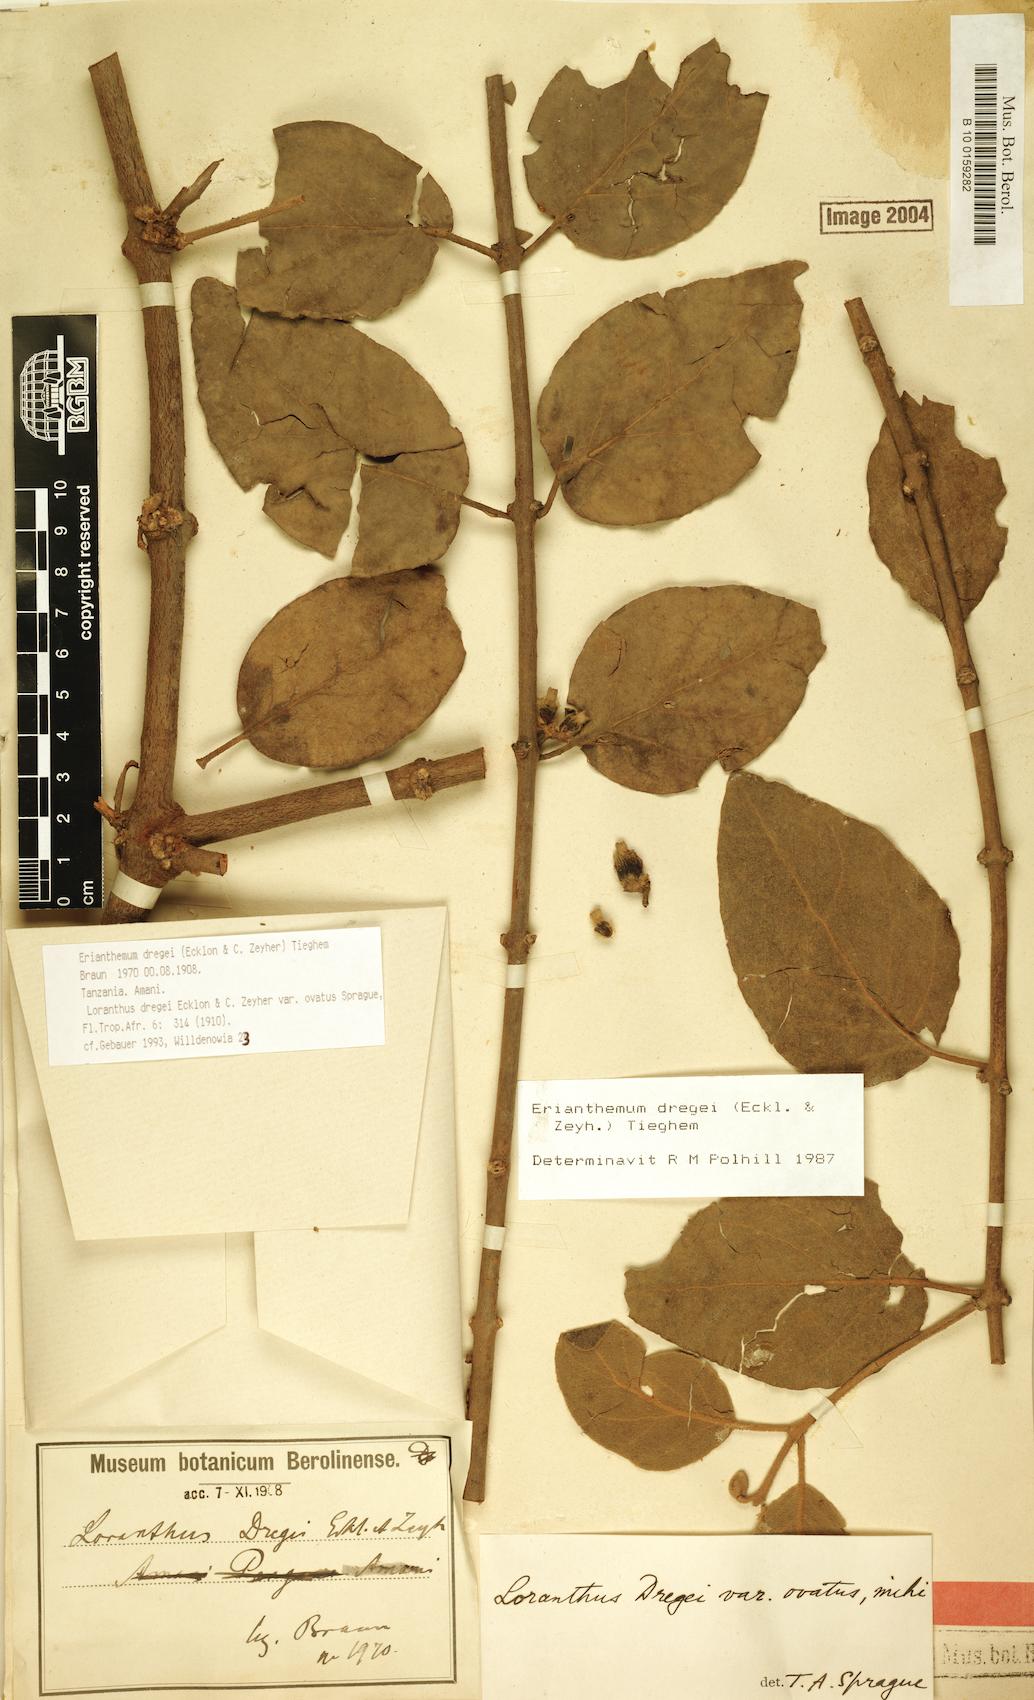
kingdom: Plantae
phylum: Tracheophyta
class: Magnoliopsida
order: Santalales
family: Loranthaceae
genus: Erianthemum
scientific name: Erianthemum dregei
